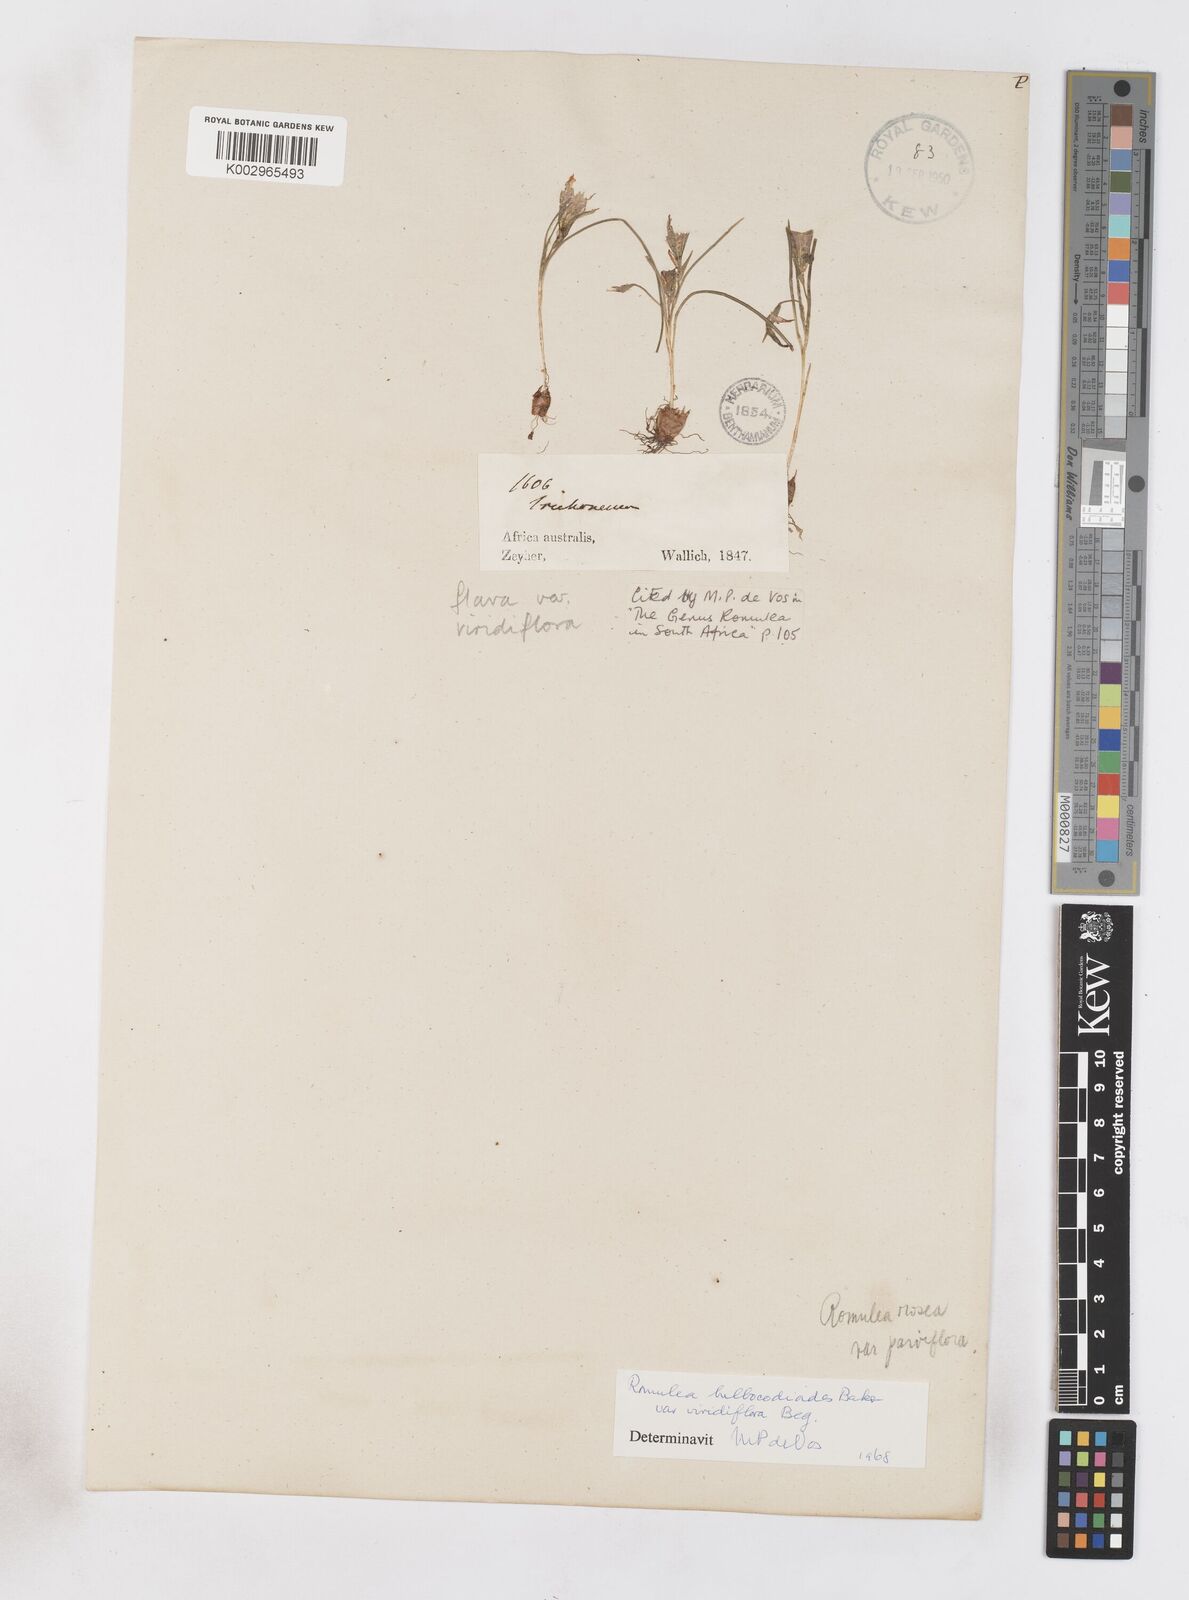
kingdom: Plantae
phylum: Tracheophyta
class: Liliopsida
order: Asparagales
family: Iridaceae
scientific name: Iridaceae
